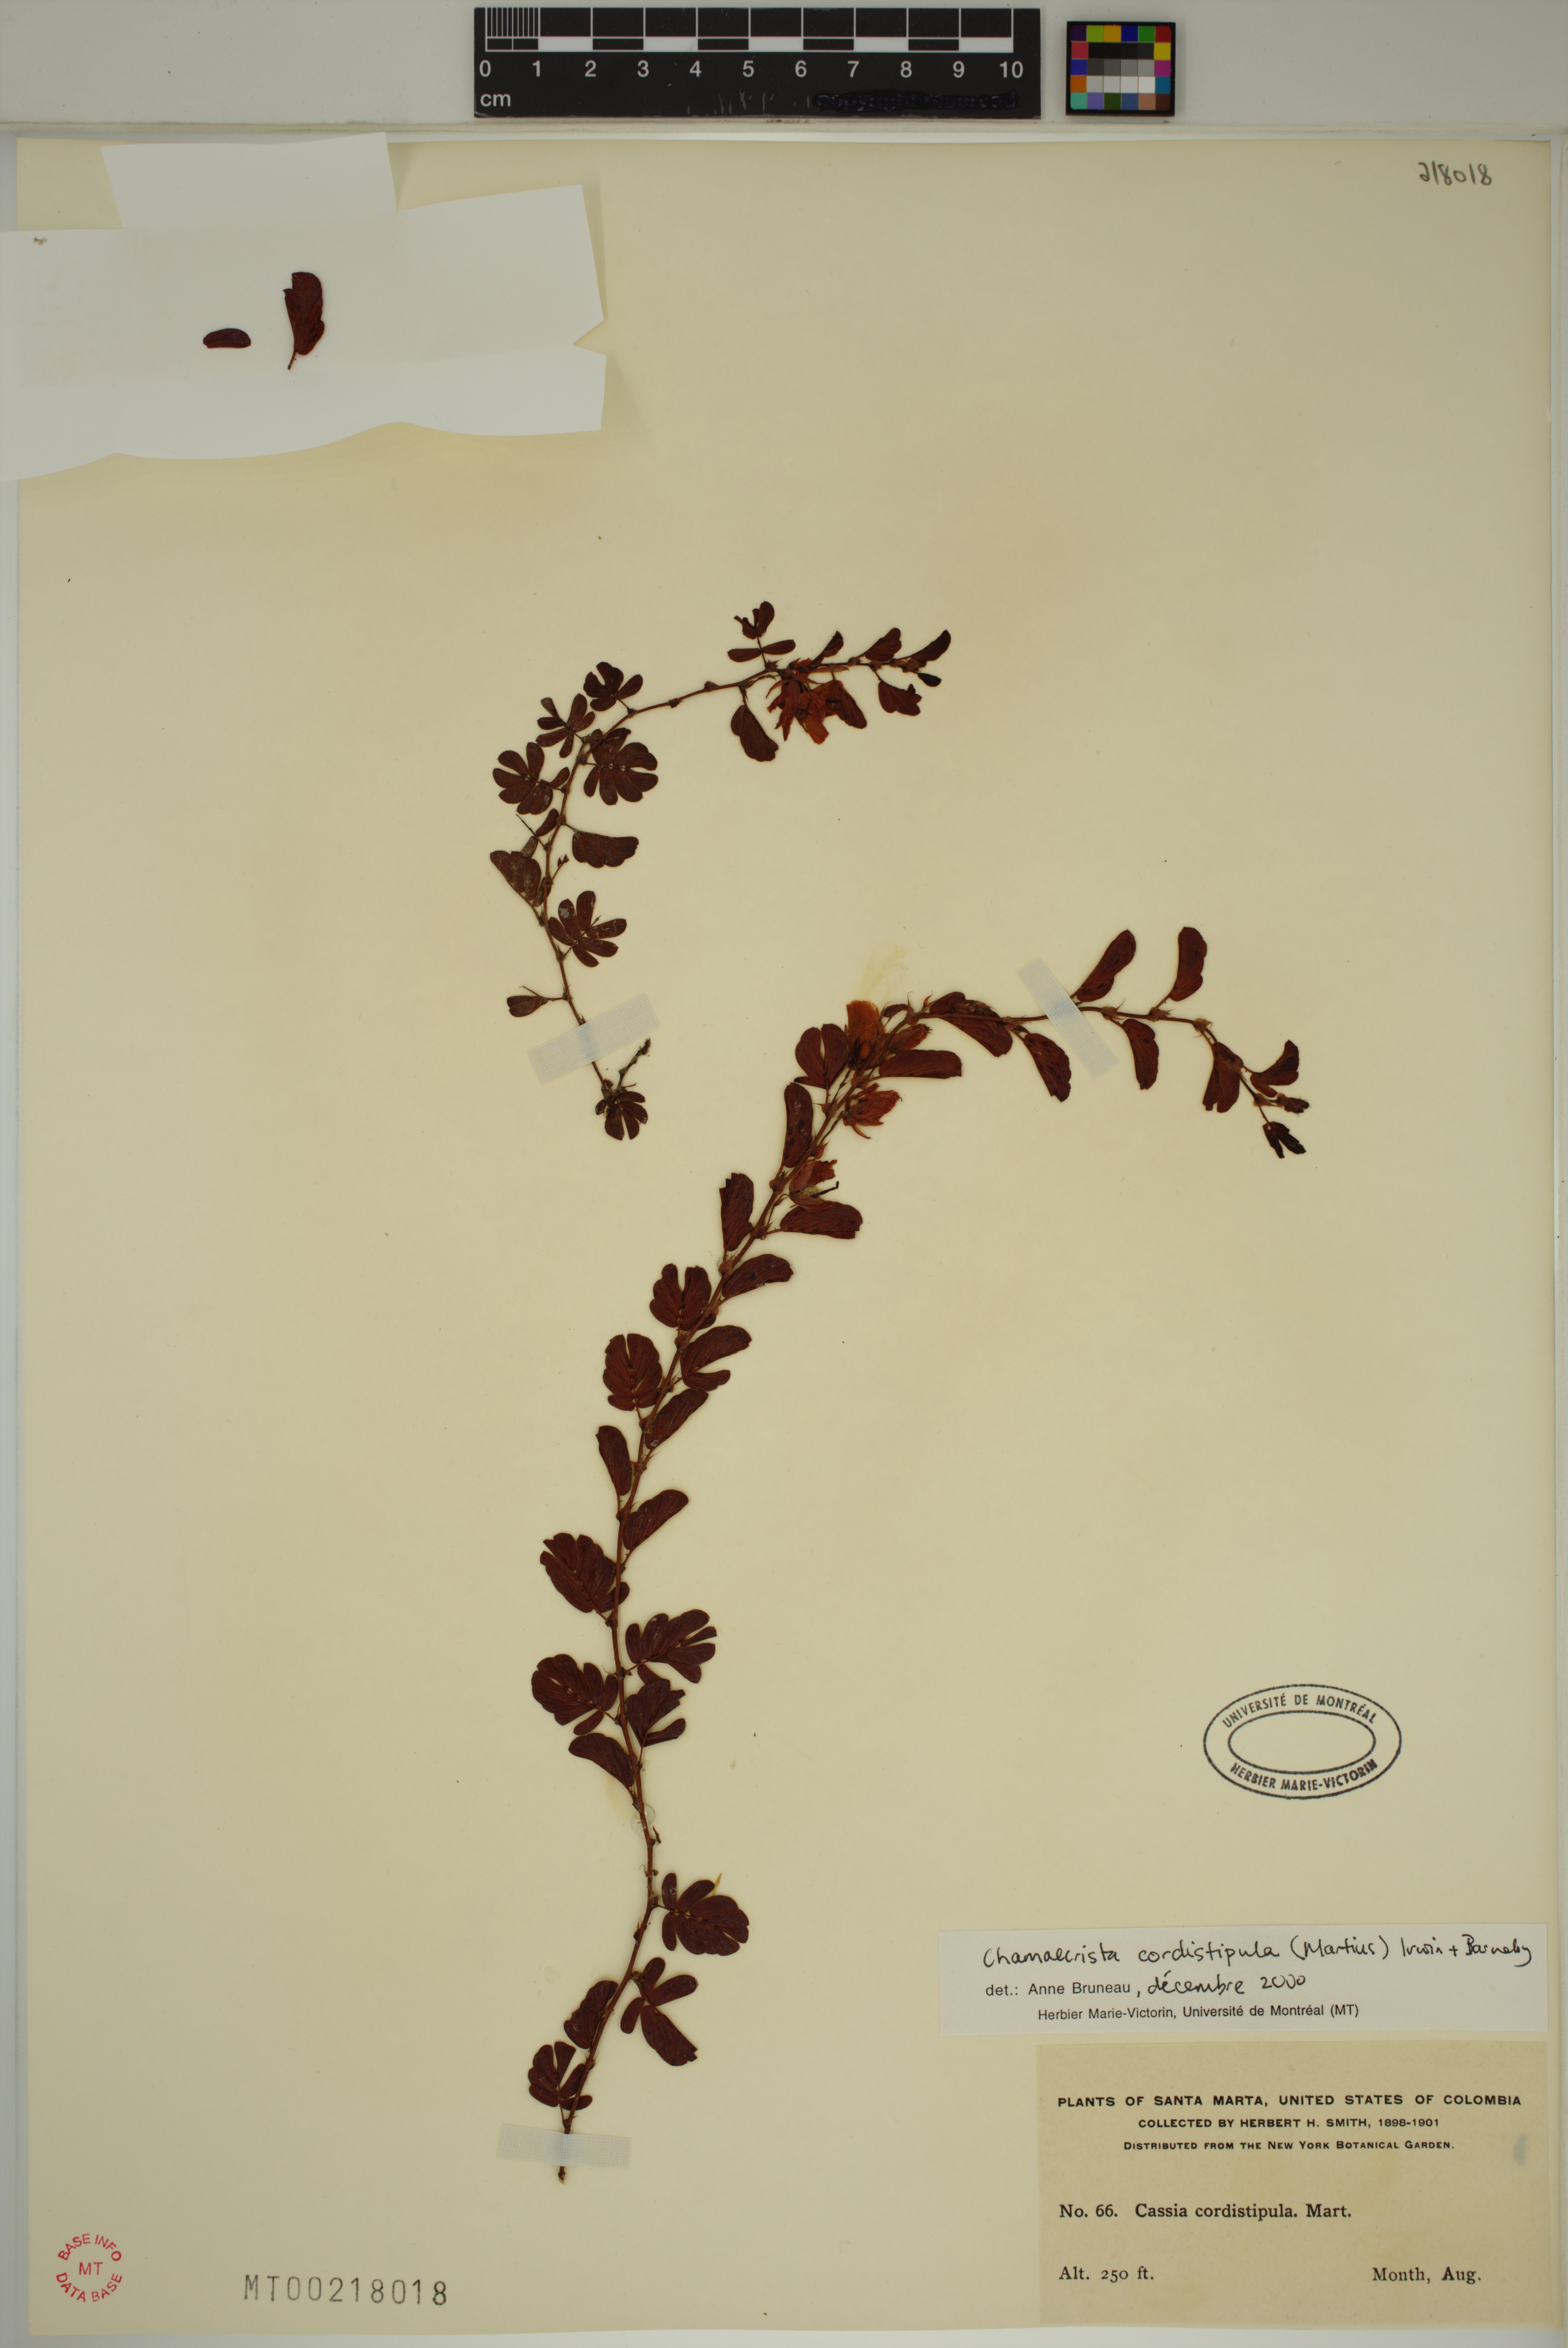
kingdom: Plantae
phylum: Tracheophyta
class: Magnoliopsida
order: Fabales
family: Fabaceae
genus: Chamaecrista
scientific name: Chamaecrista cordistipula
